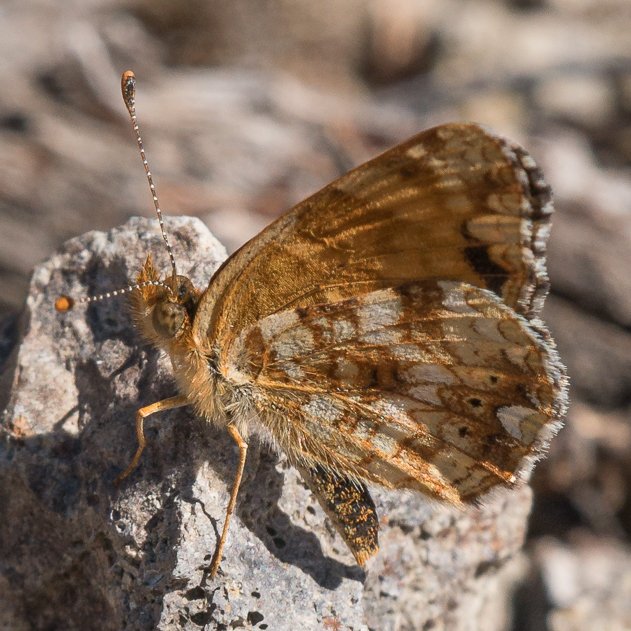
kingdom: Animalia
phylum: Arthropoda
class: Insecta
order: Lepidoptera
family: Nymphalidae
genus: Eresia
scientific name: Eresia aveyrona
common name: Mylitta Crescent
